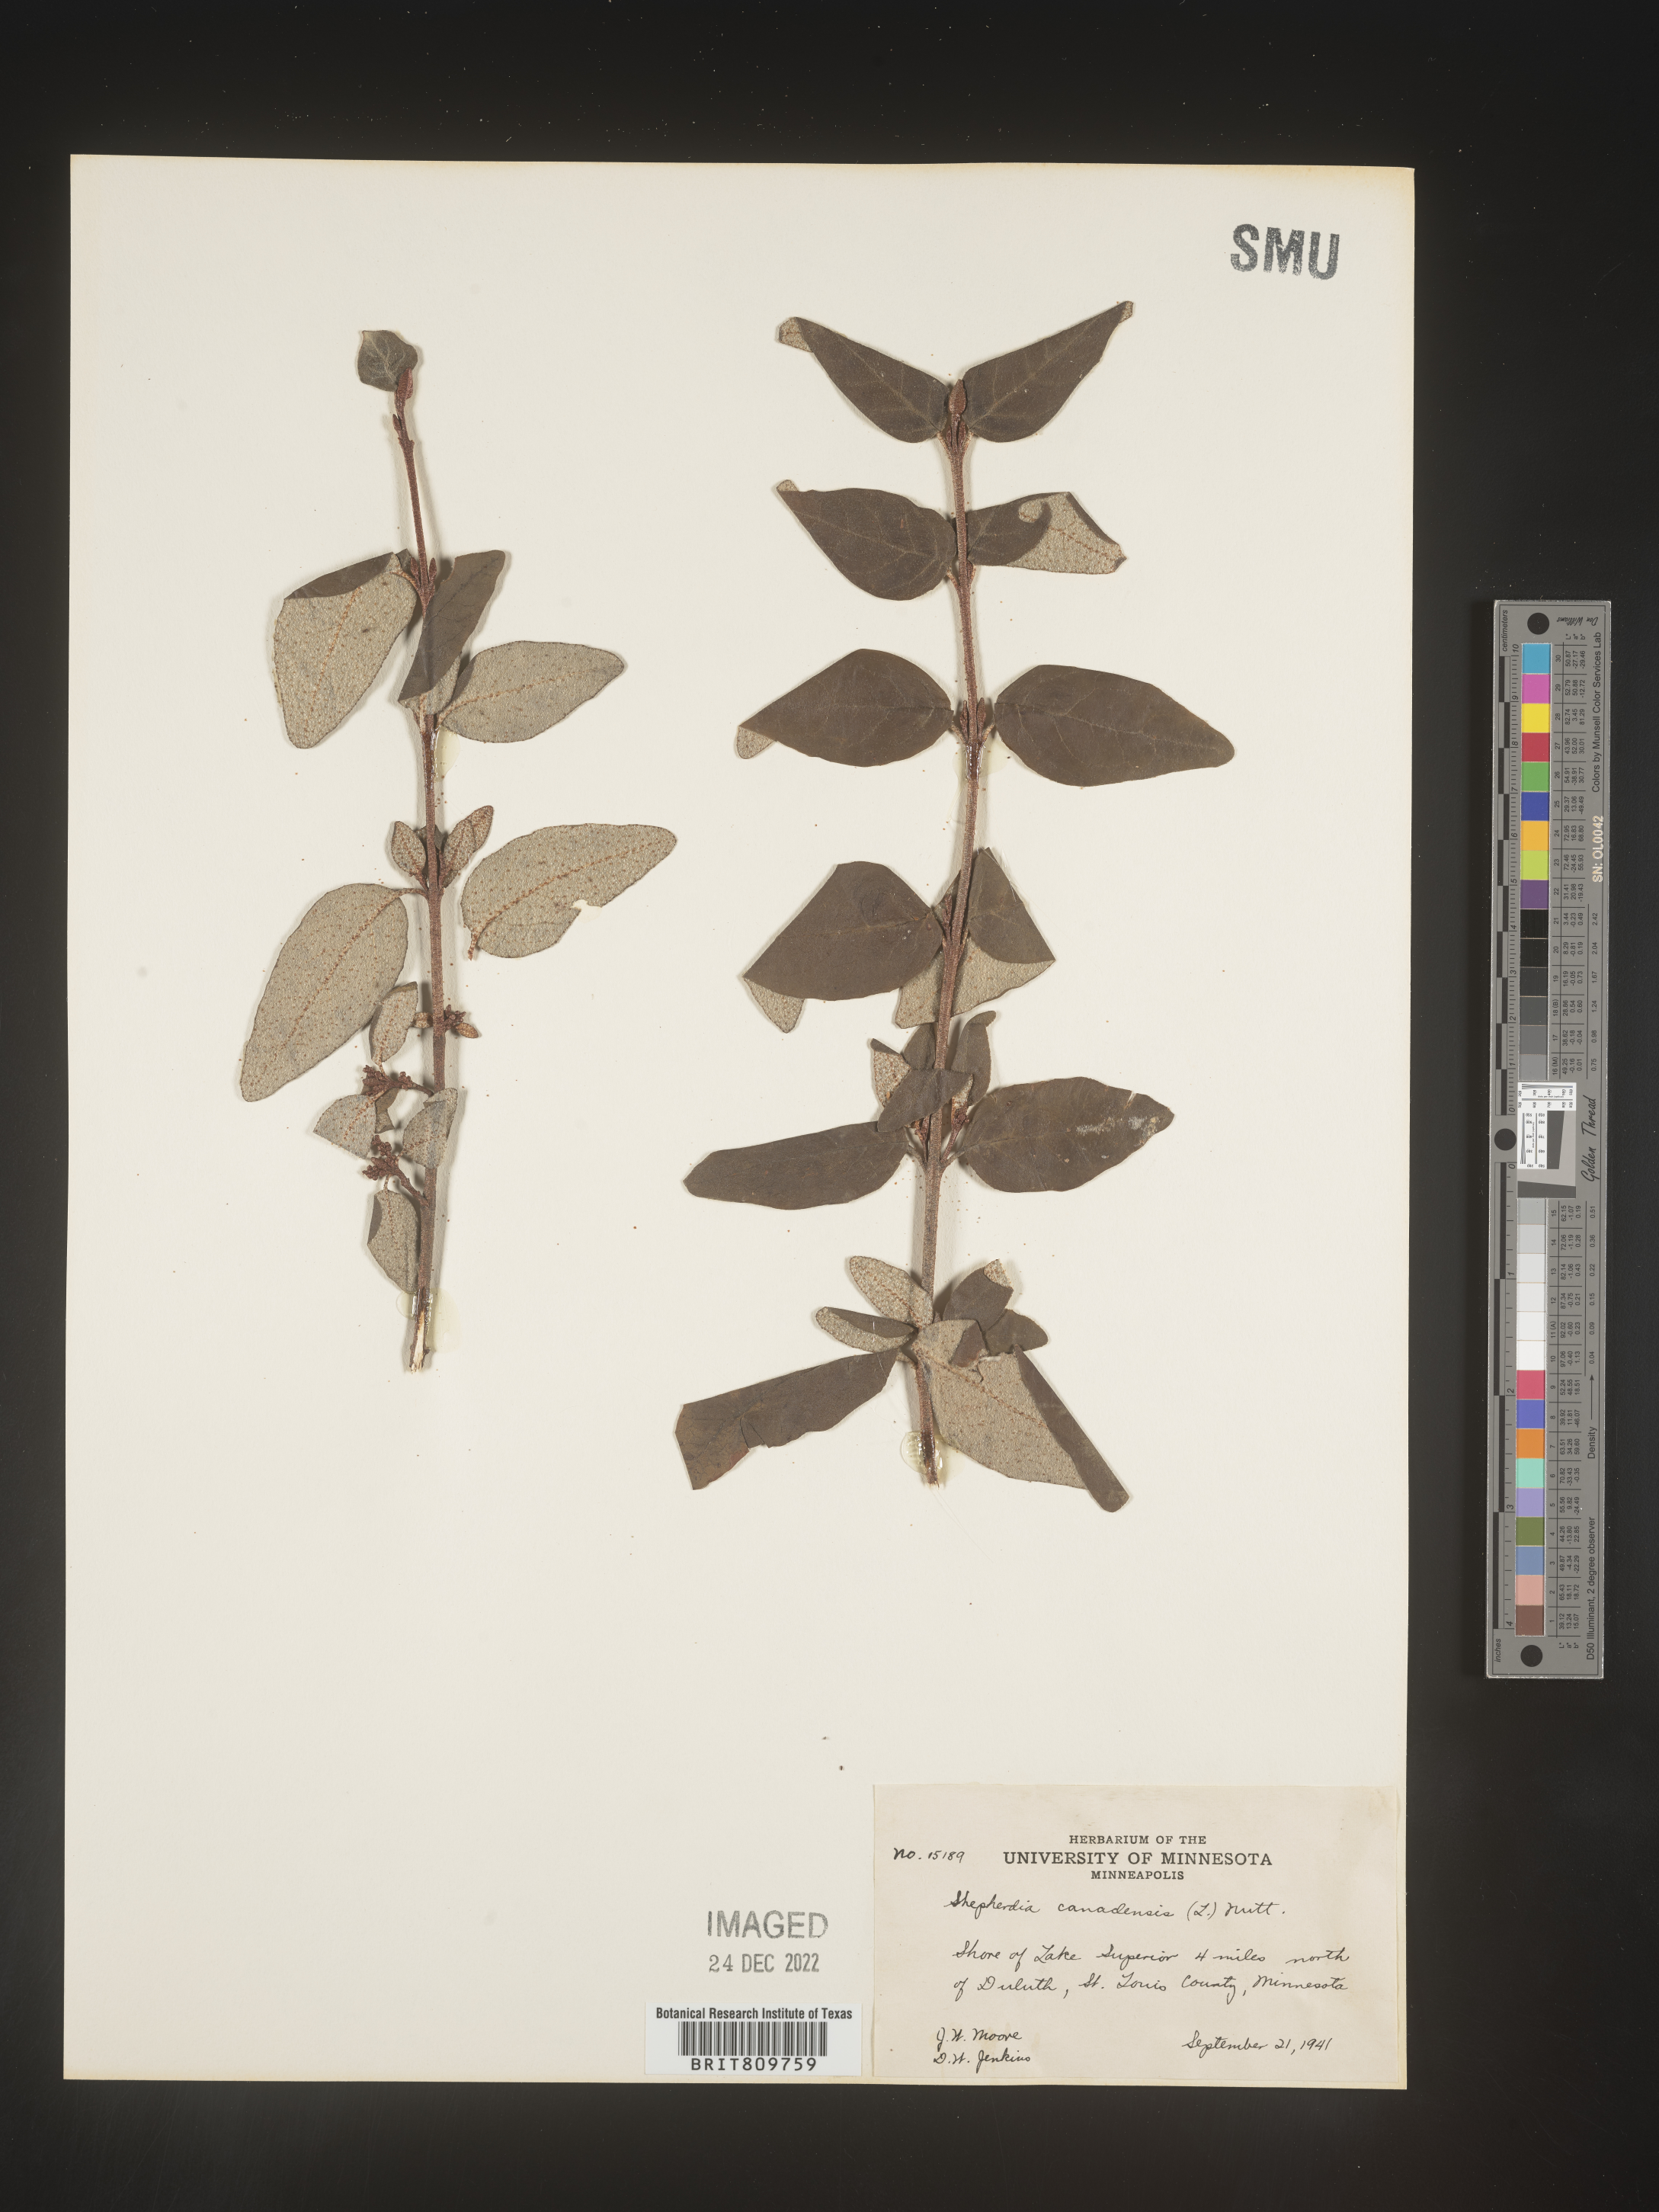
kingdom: Plantae
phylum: Tracheophyta
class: Magnoliopsida
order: Rosales
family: Elaeagnaceae
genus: Shepherdia
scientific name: Shepherdia canadensis
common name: Soapberry
